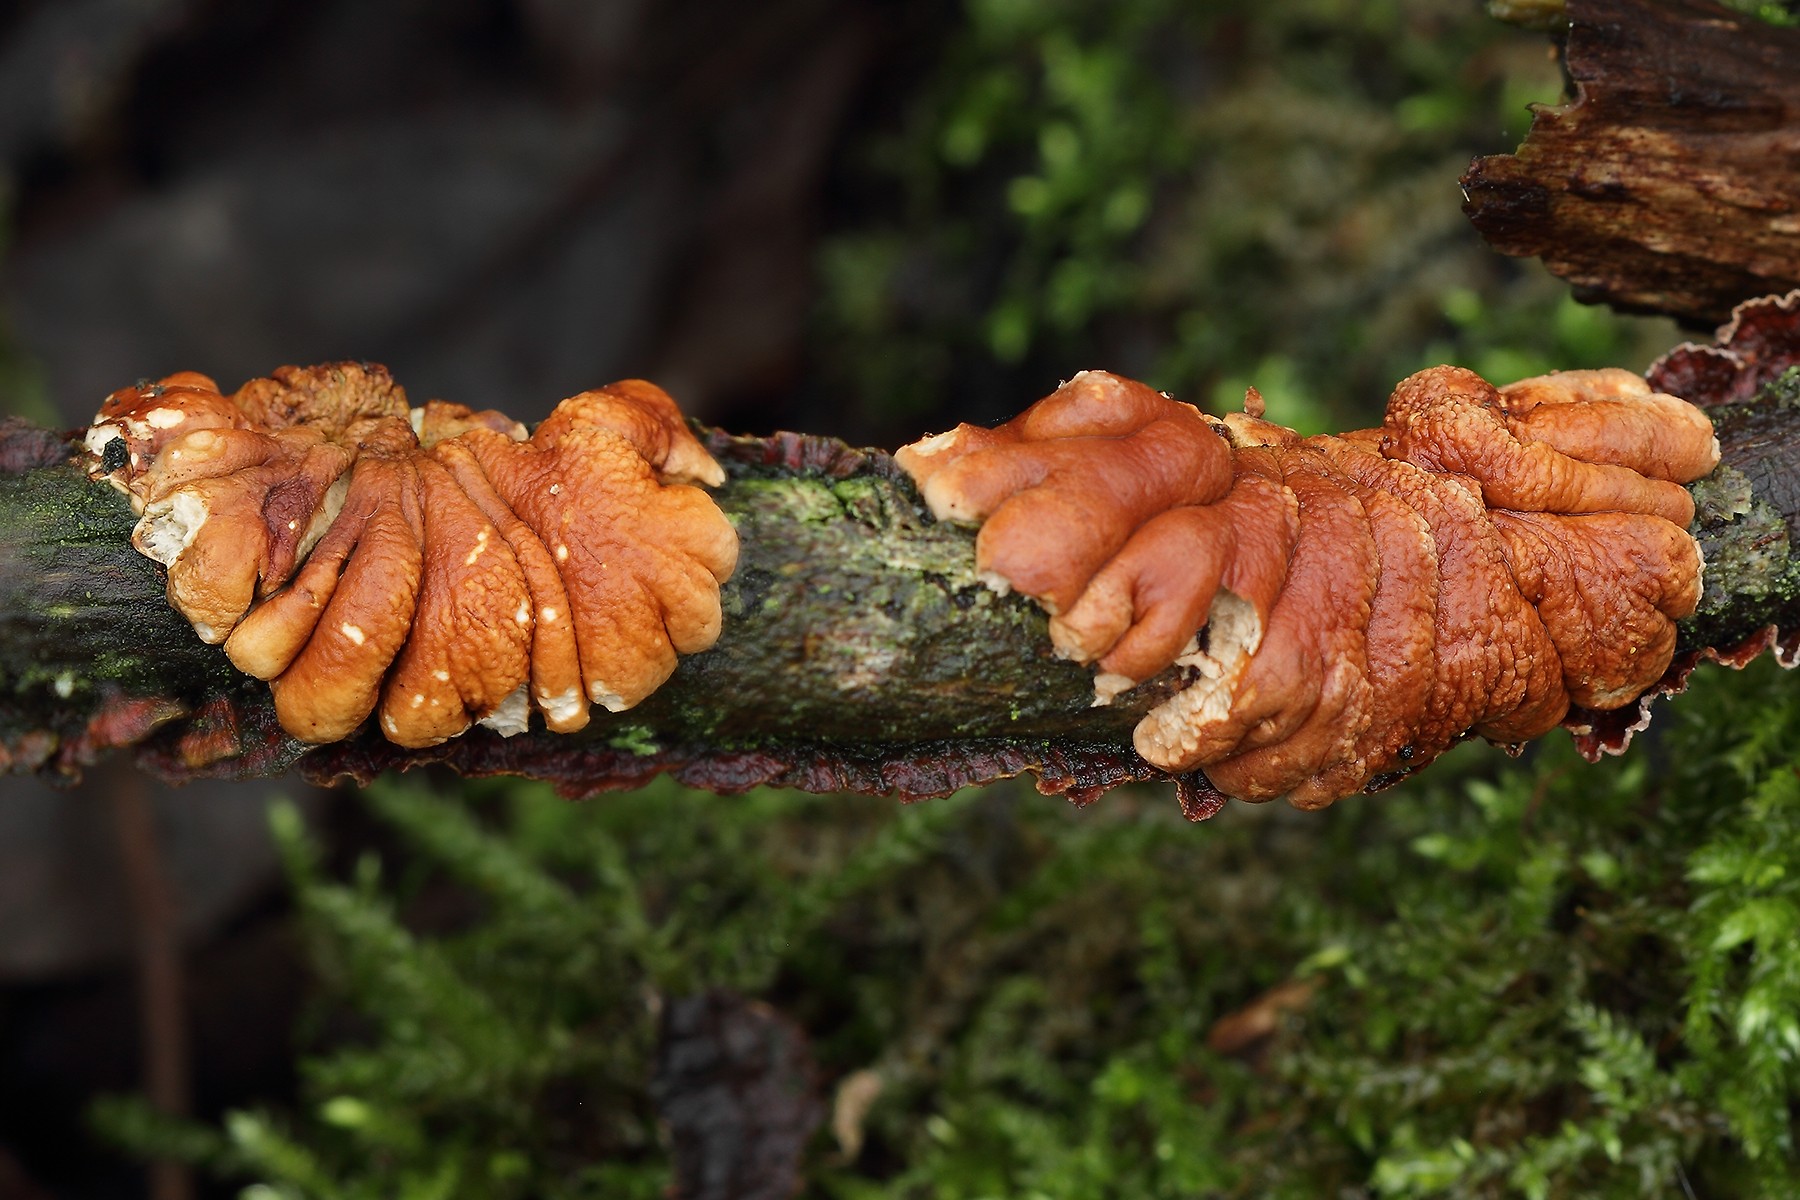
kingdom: Fungi
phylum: Ascomycota
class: Sordariomycetes
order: Hypocreales
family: Hypocreaceae
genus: Hypocreopsis
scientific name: Hypocreopsis lichenoides
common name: pilfinger
